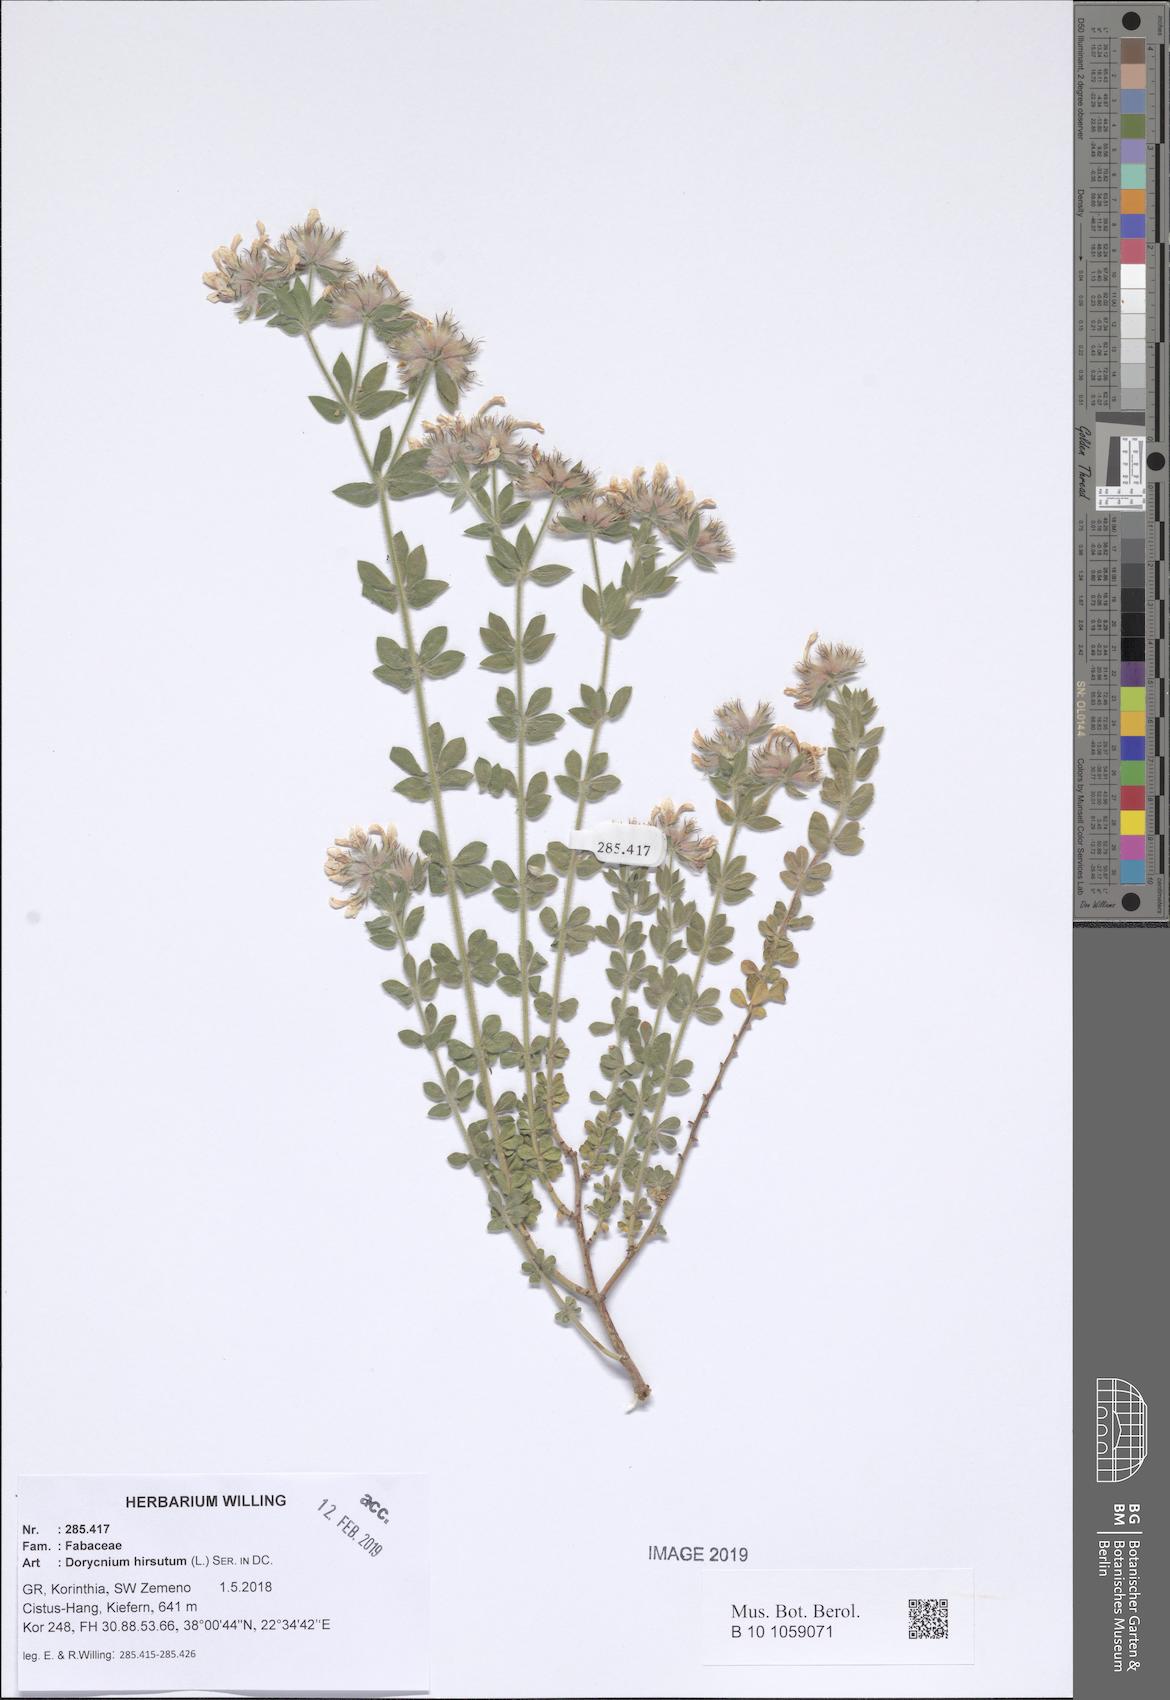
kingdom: Plantae
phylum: Tracheophyta
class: Magnoliopsida
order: Fabales
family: Fabaceae
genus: Lotus
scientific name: Lotus hirsutus
